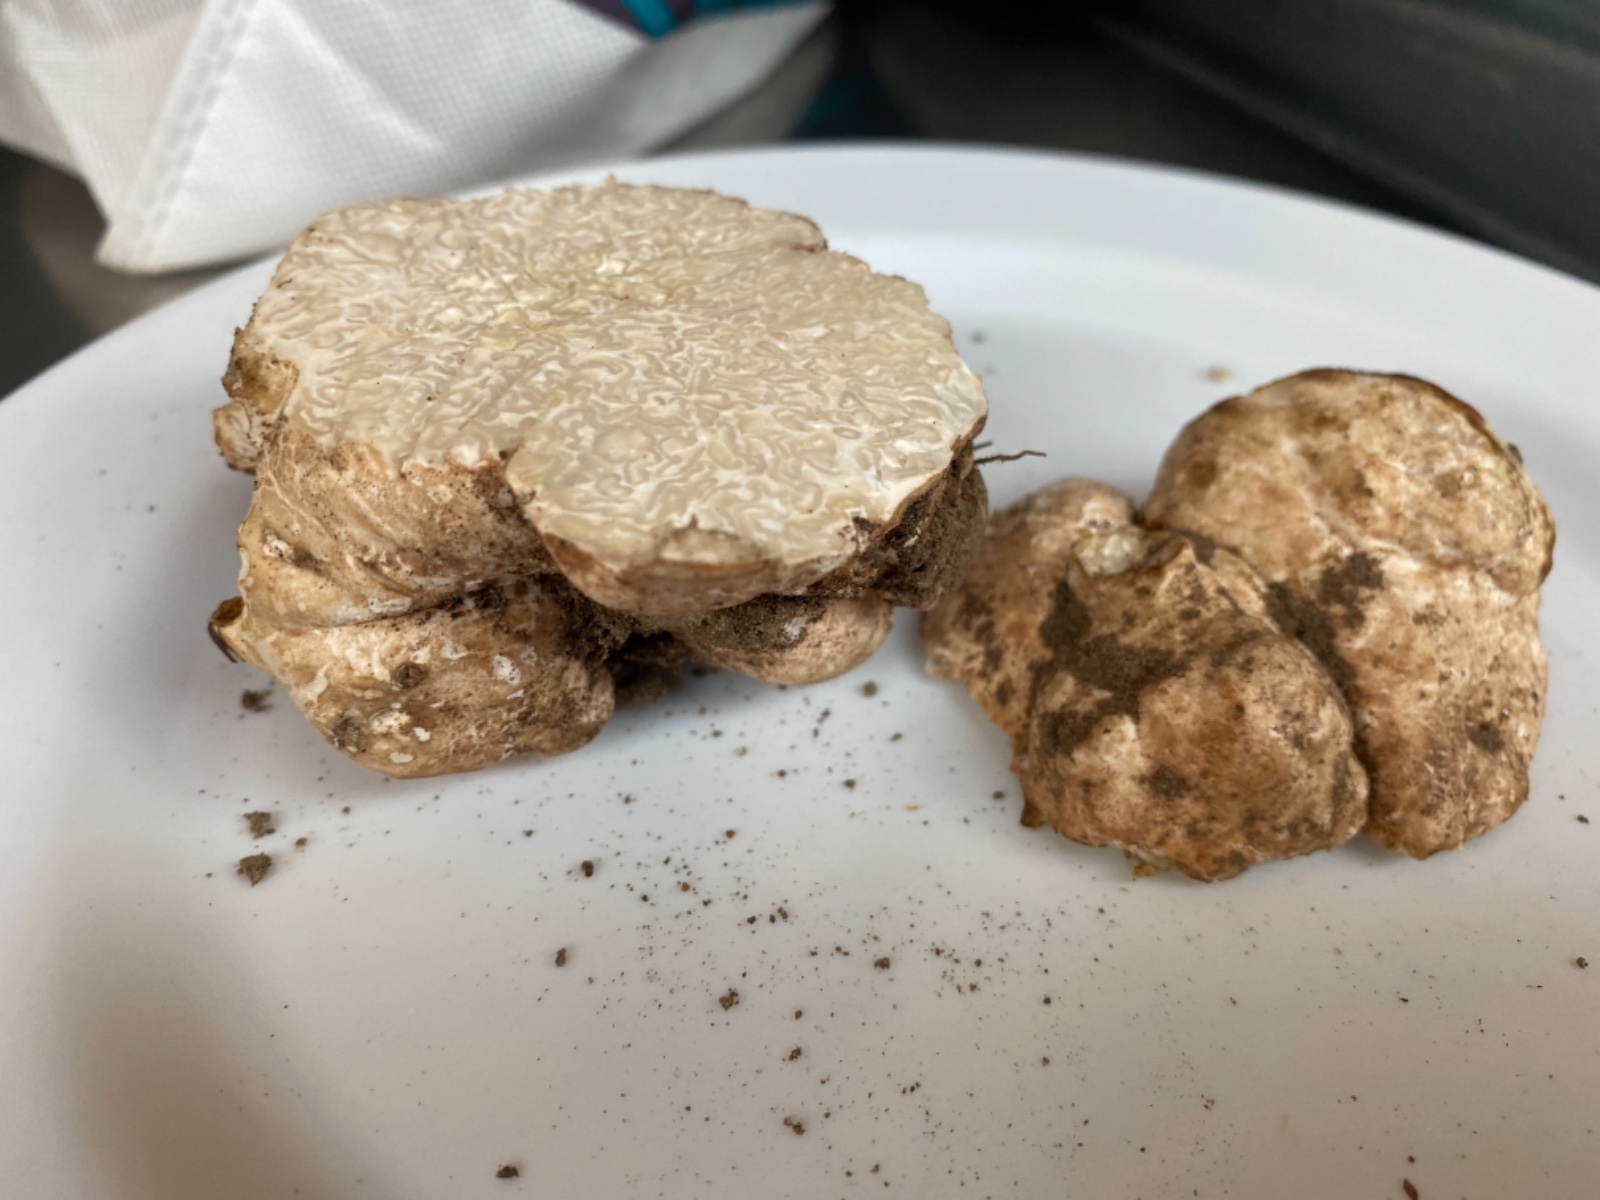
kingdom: Fungi
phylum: Ascomycota
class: Pezizomycetes
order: Pezizales
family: Tuberaceae
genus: Choiromyces
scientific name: Choiromyces venosus
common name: kartoffeltrøffel
